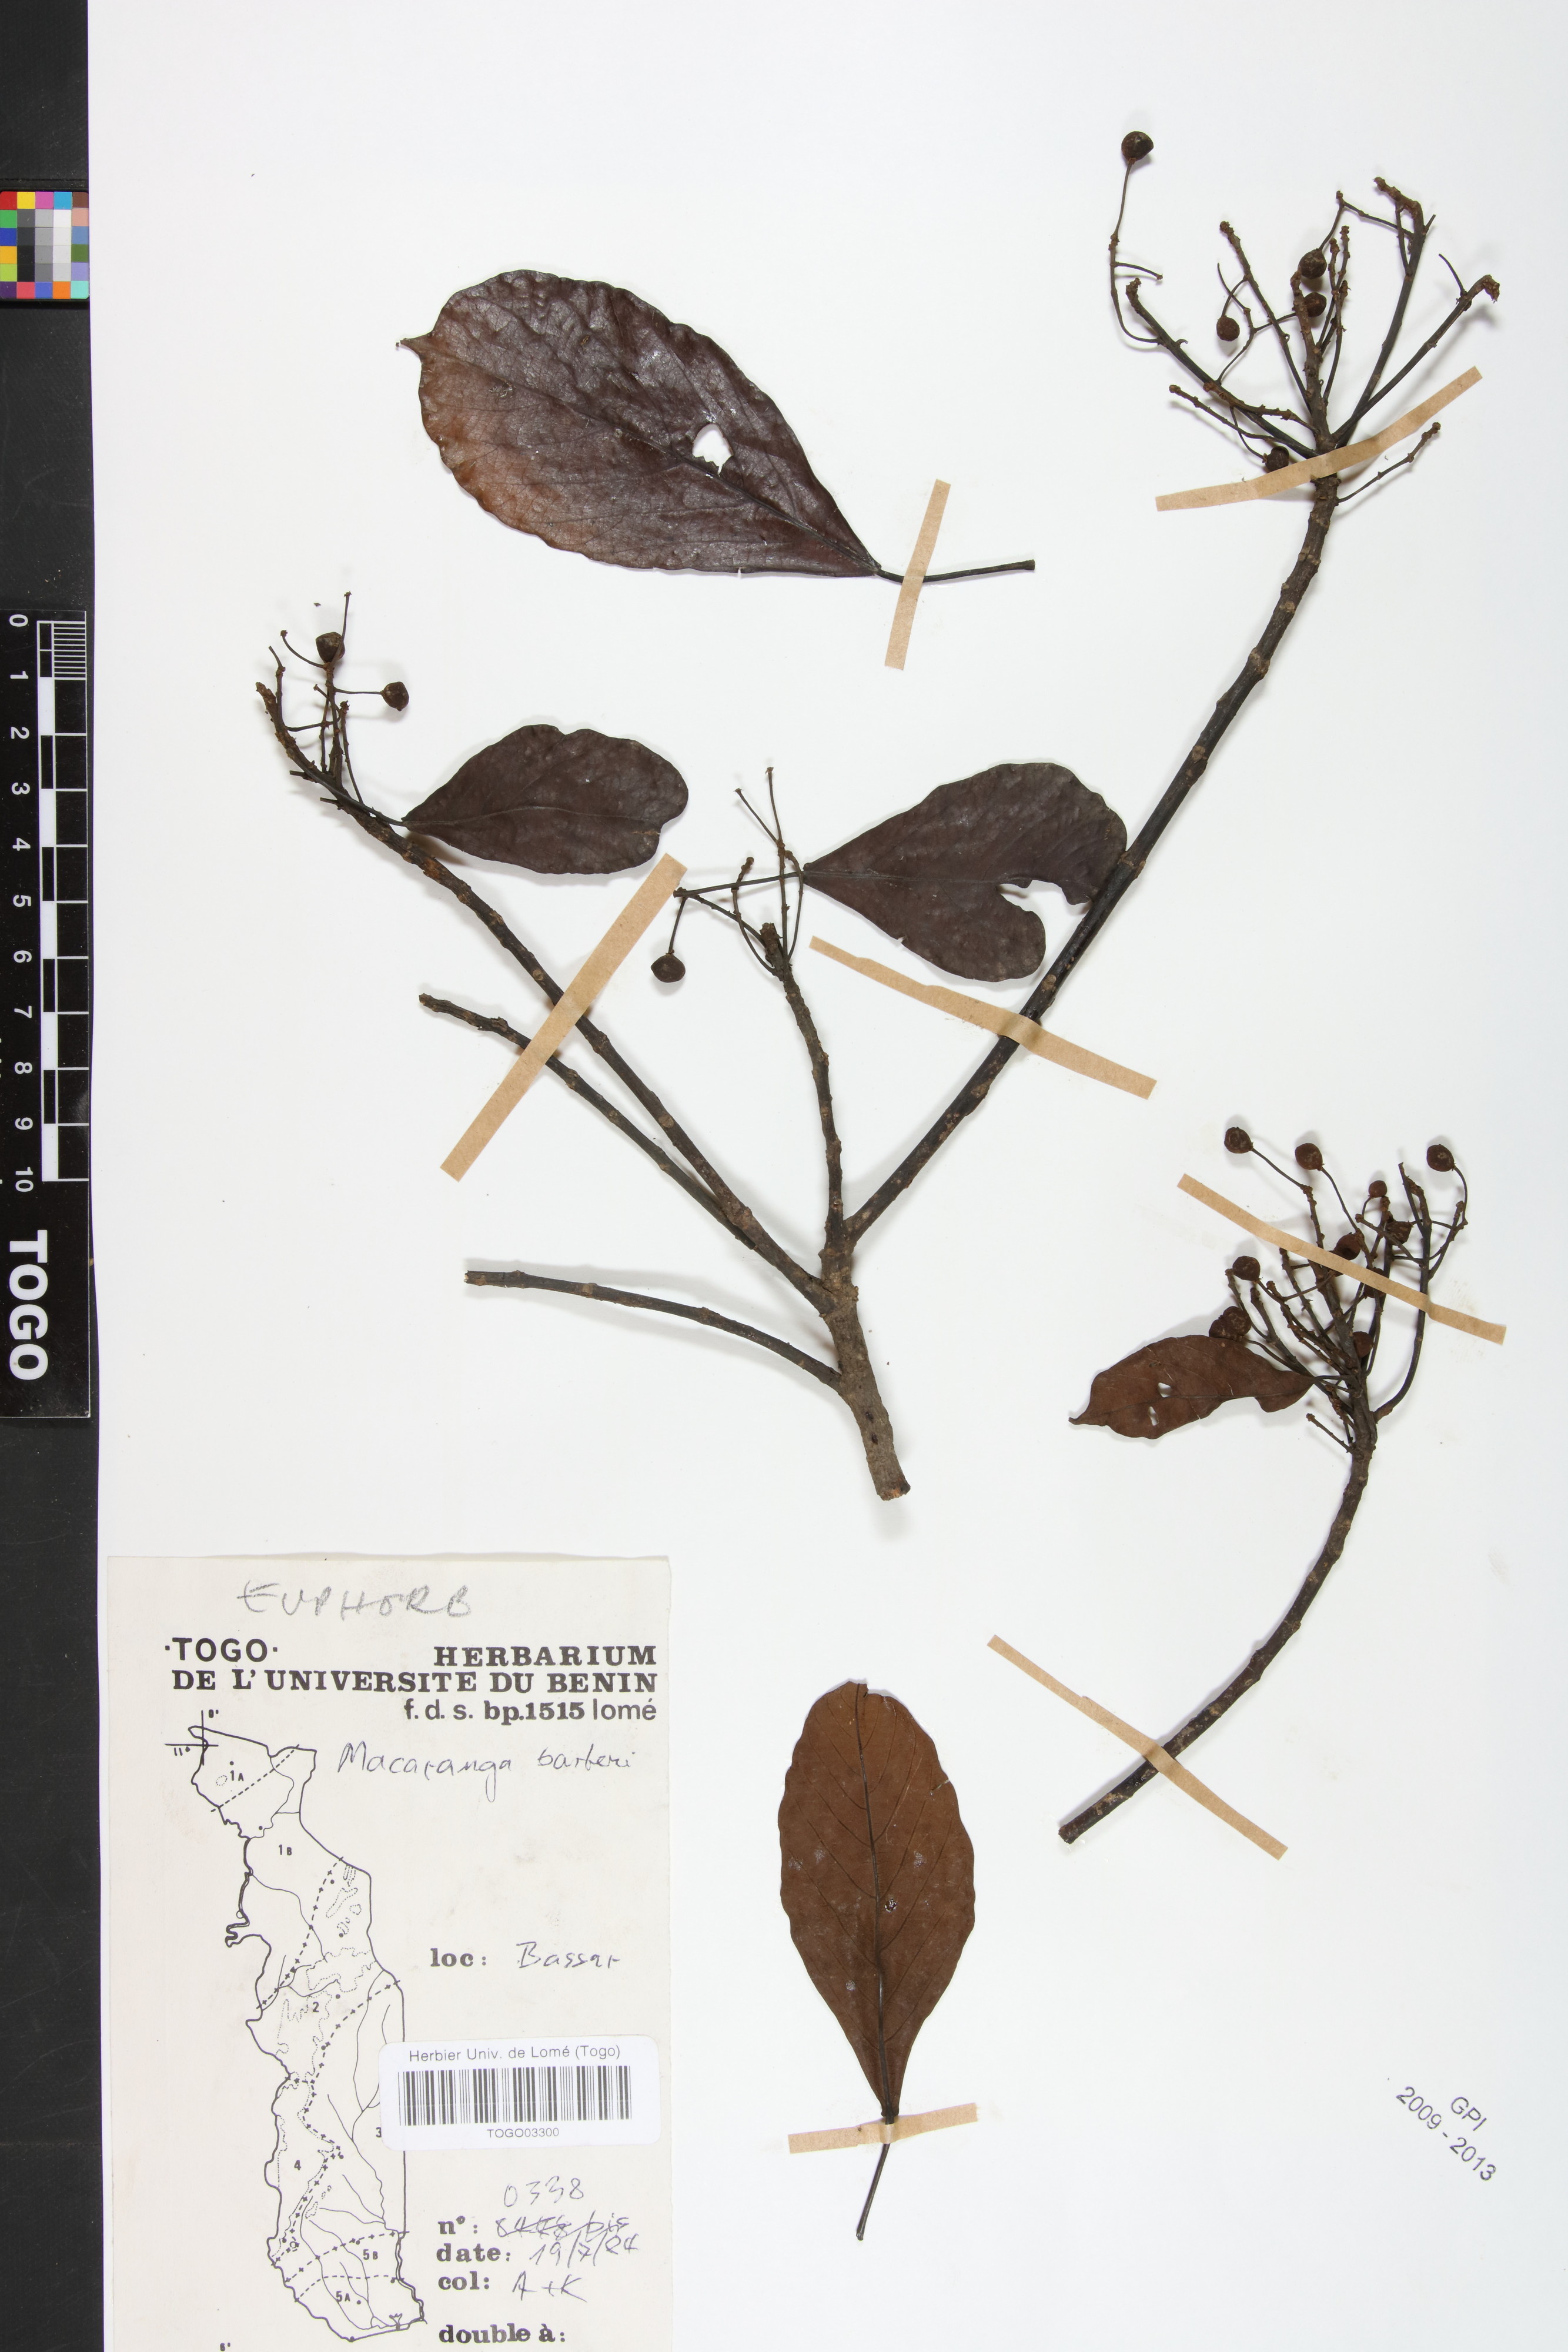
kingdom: Plantae
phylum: Tracheophyta
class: Magnoliopsida
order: Malpighiales
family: Euphorbiaceae
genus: Macaranga
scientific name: Macaranga barteri
